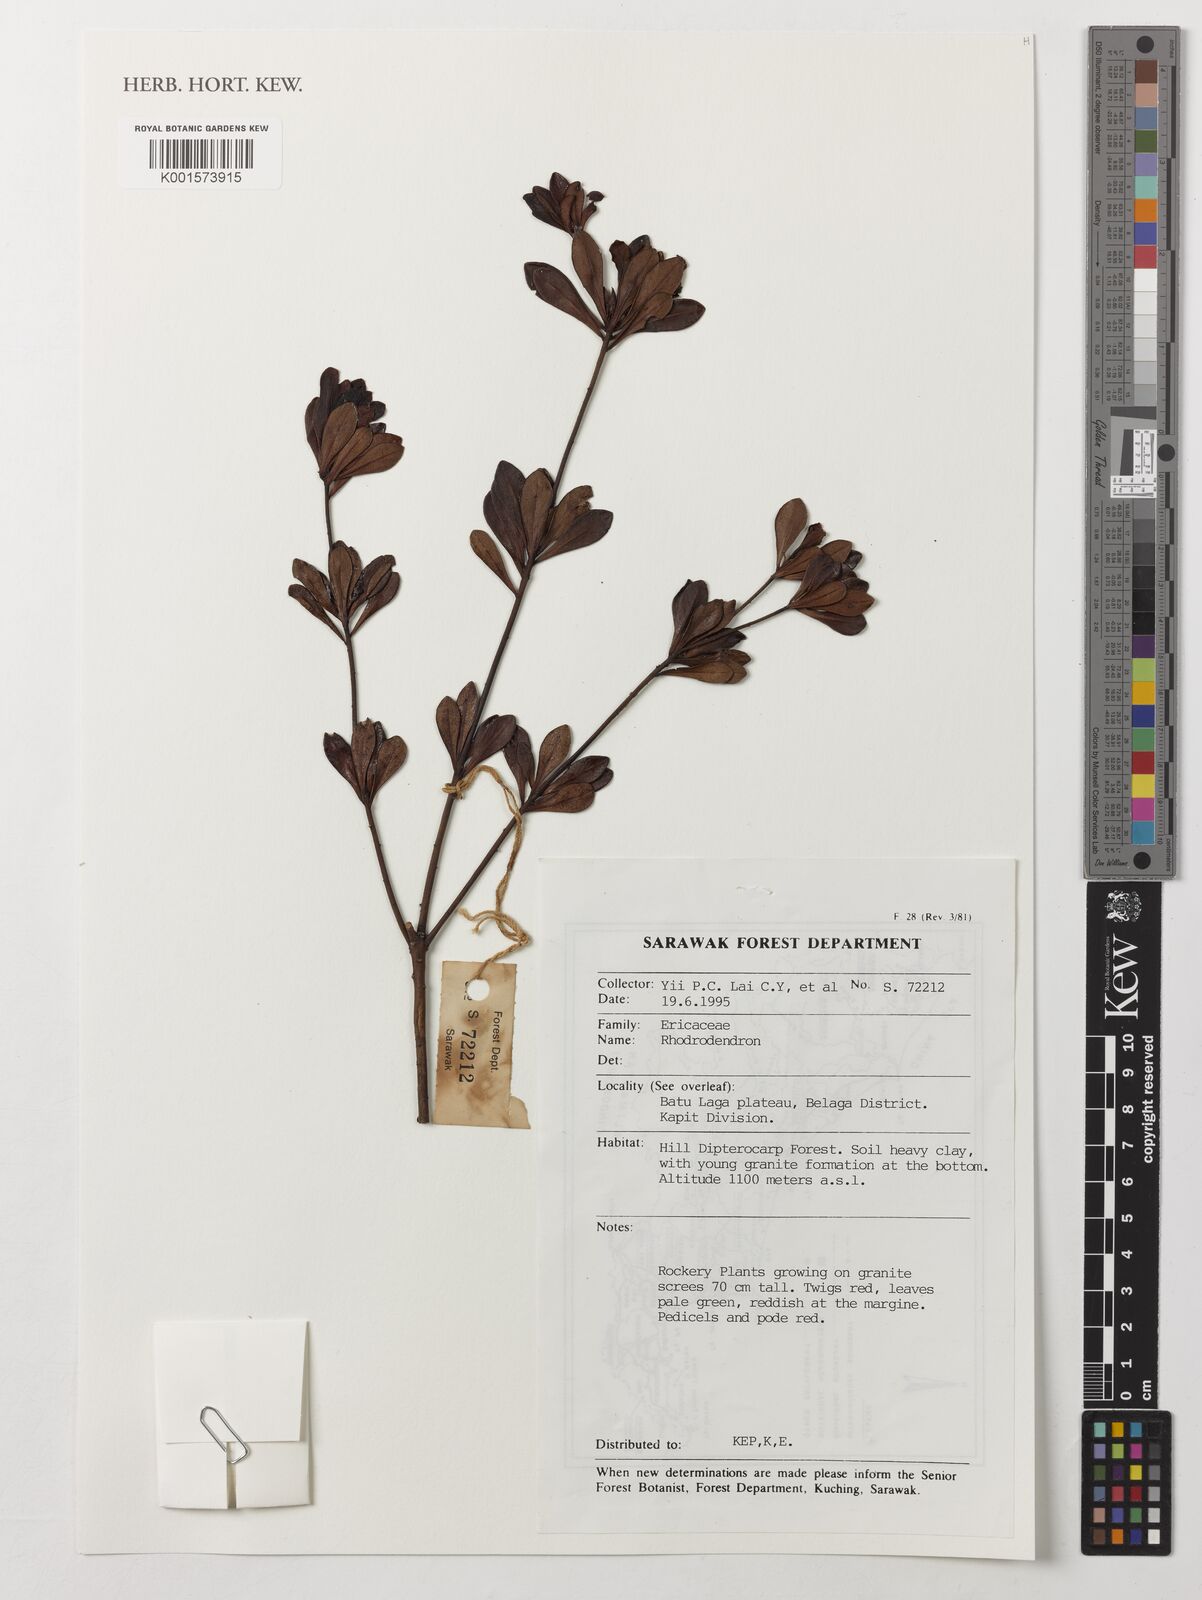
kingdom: Plantae
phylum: Tracheophyta
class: Magnoliopsida
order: Ericales
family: Ericaceae
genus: Rhododendron
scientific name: Rhododendron
